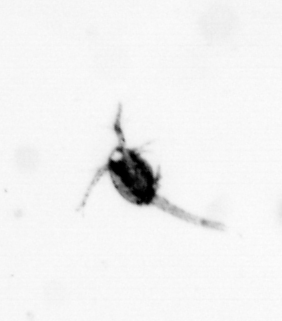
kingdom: Animalia
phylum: Arthropoda
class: Copepoda
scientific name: Copepoda
